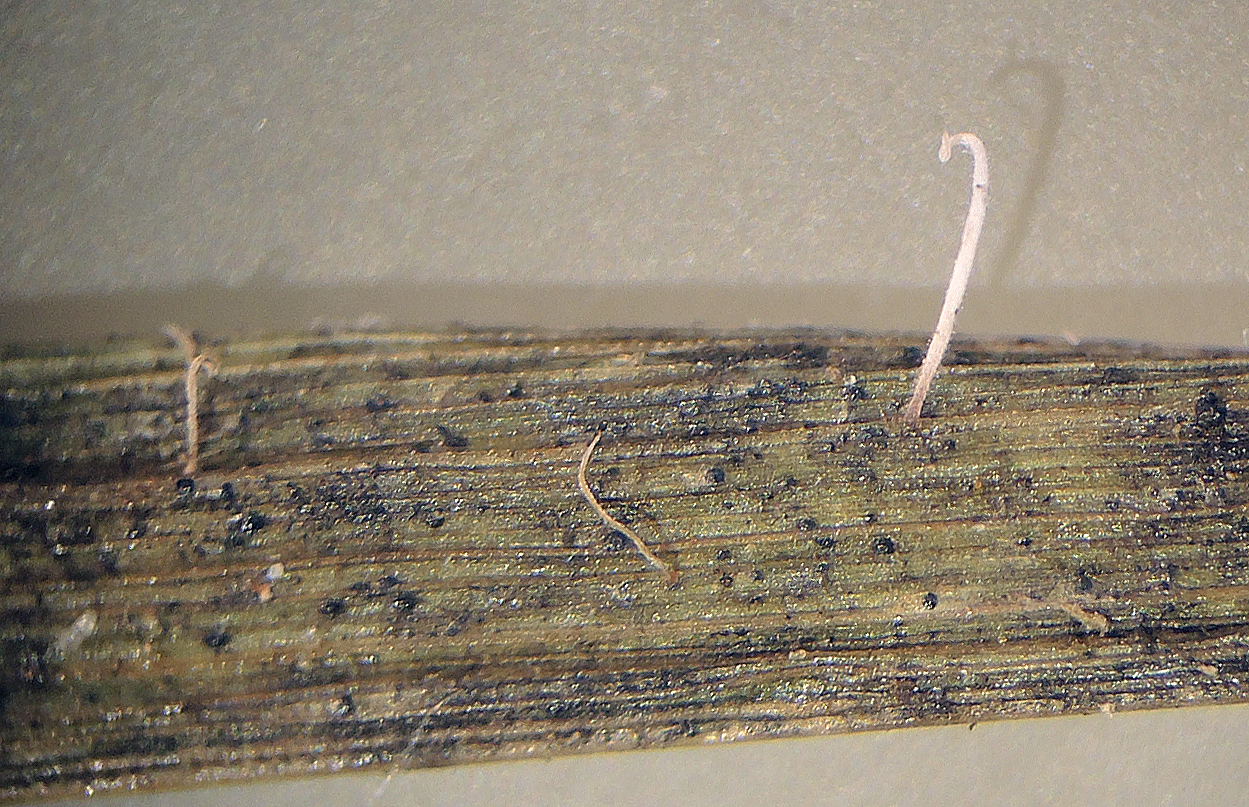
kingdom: Fungi
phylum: Basidiomycota
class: Agaricomycetes
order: Agaricales
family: Pterulaceae
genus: Pterulicium
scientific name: Pterulicium gracile
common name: trådformet fjerkølle
